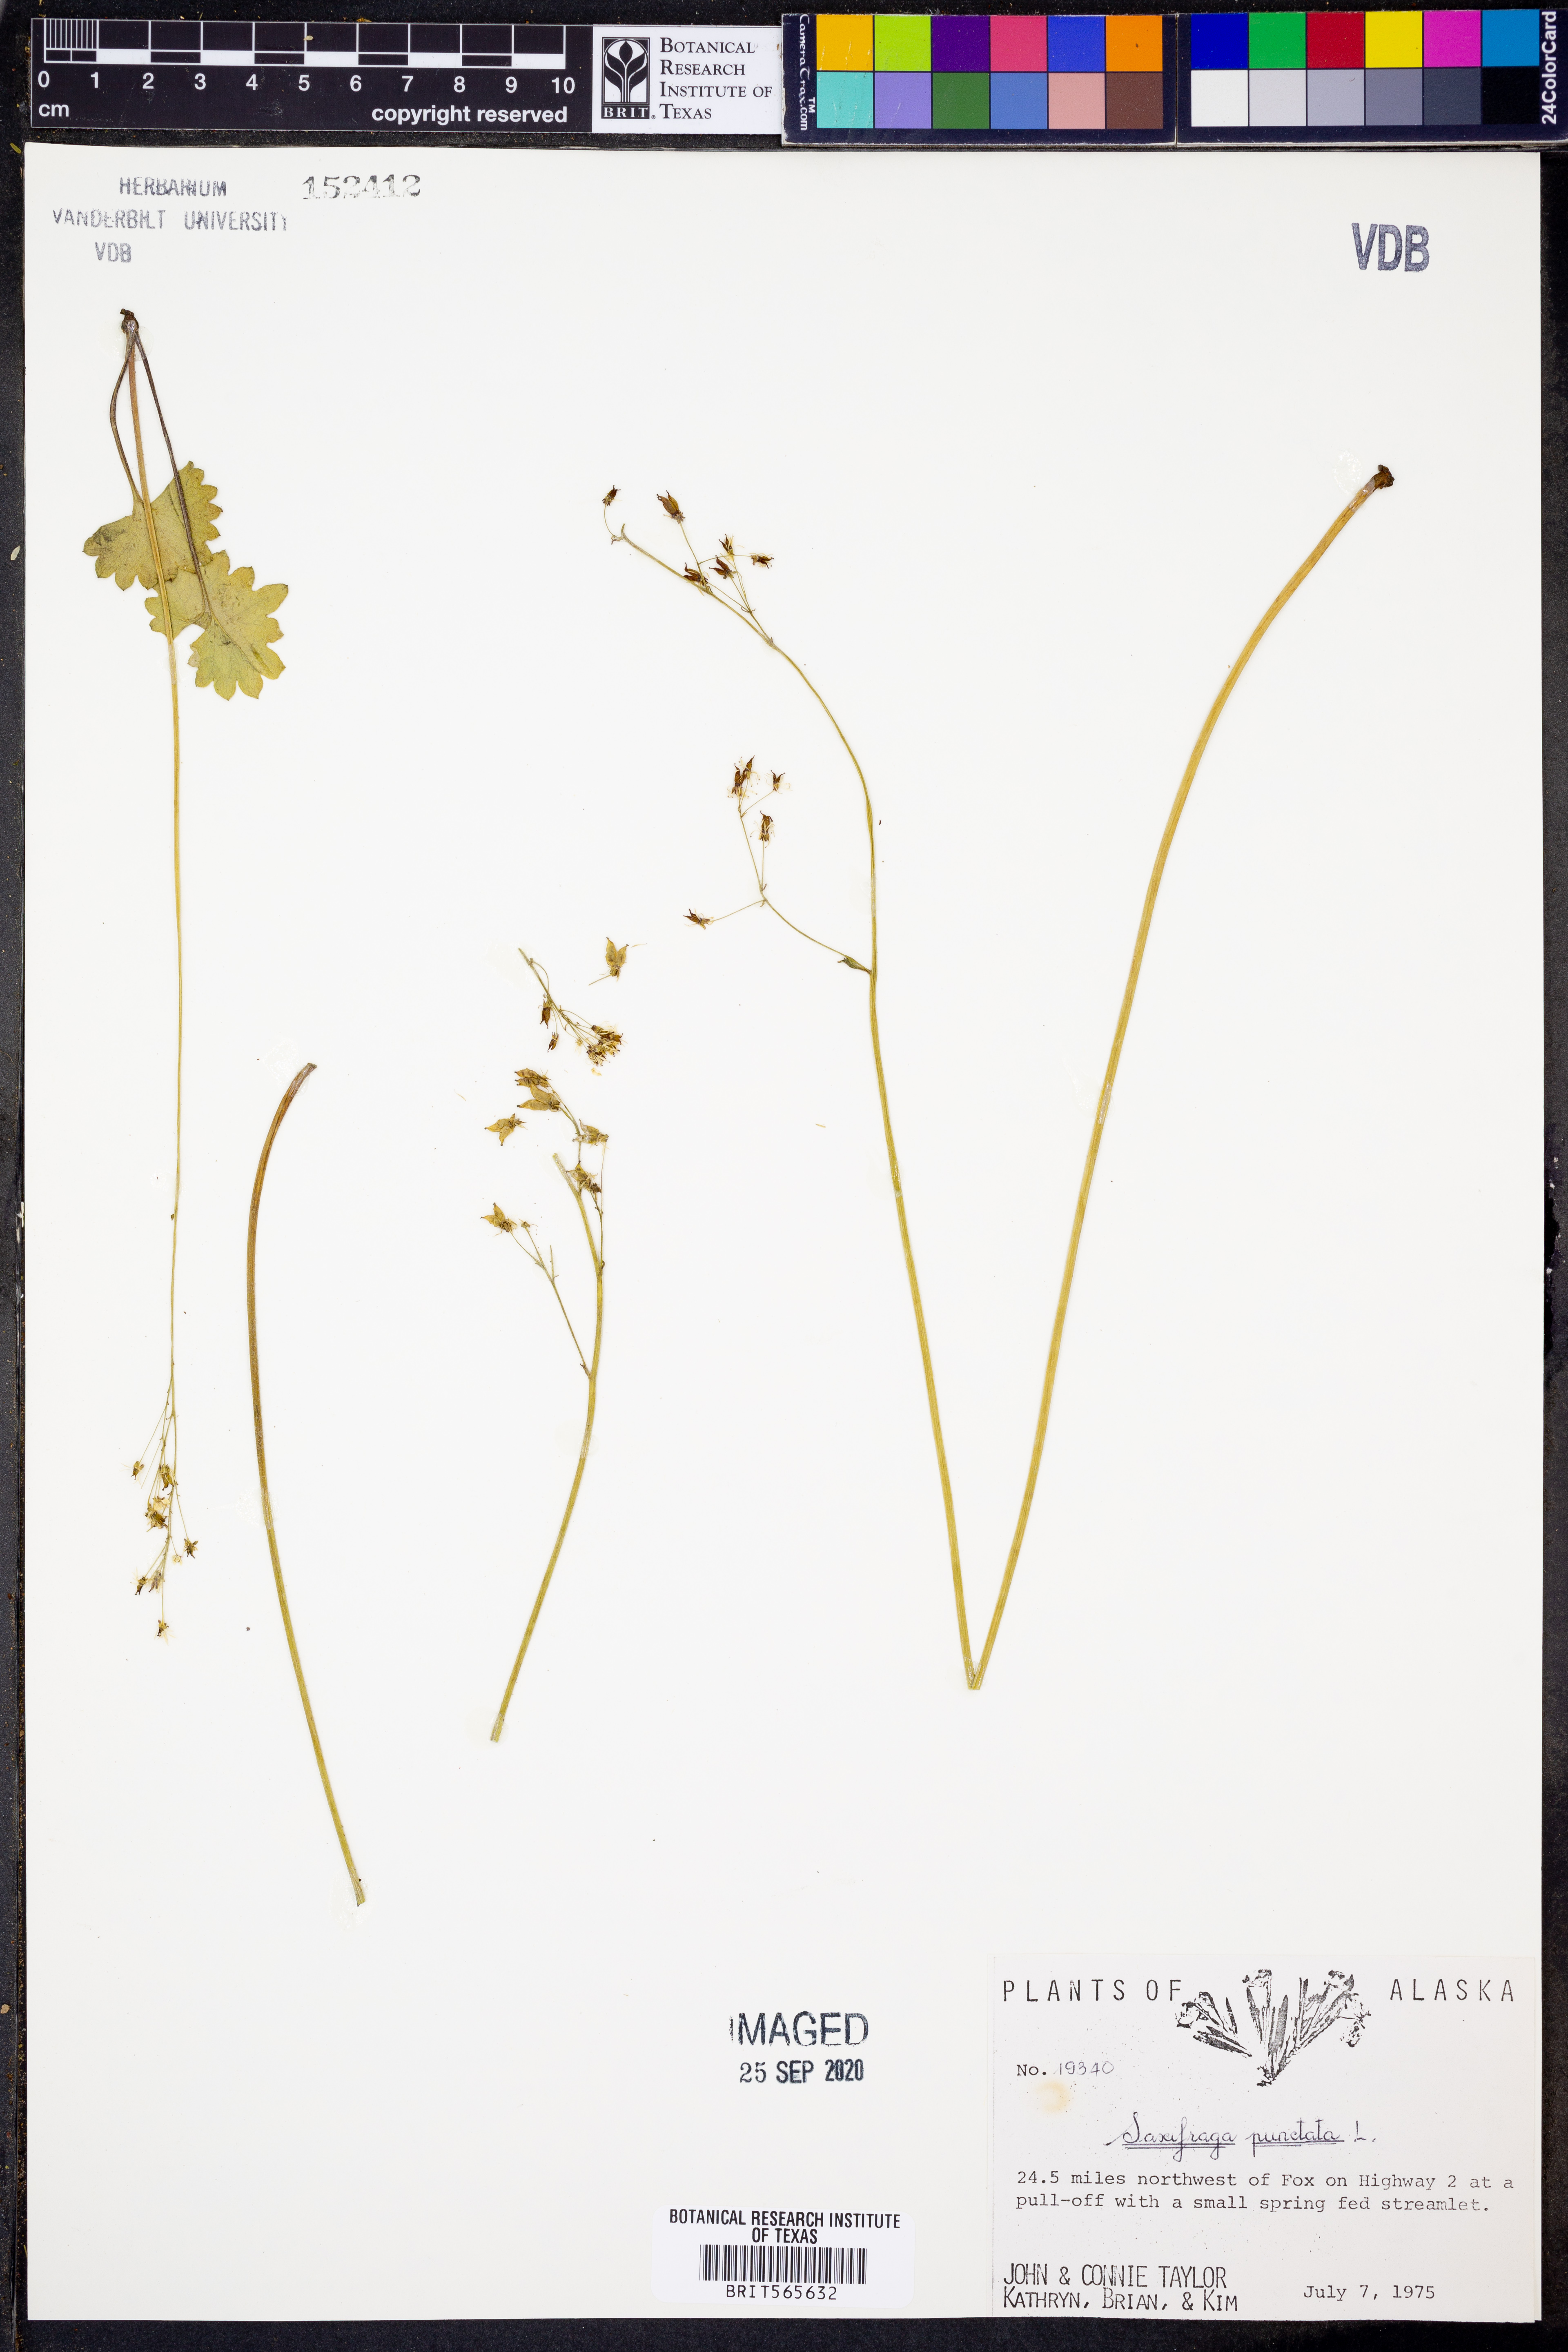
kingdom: Plantae
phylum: Tracheophyta
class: Magnoliopsida
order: Saxifragales
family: Saxifragaceae
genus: Saxifraga
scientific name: Saxifraga punctata
